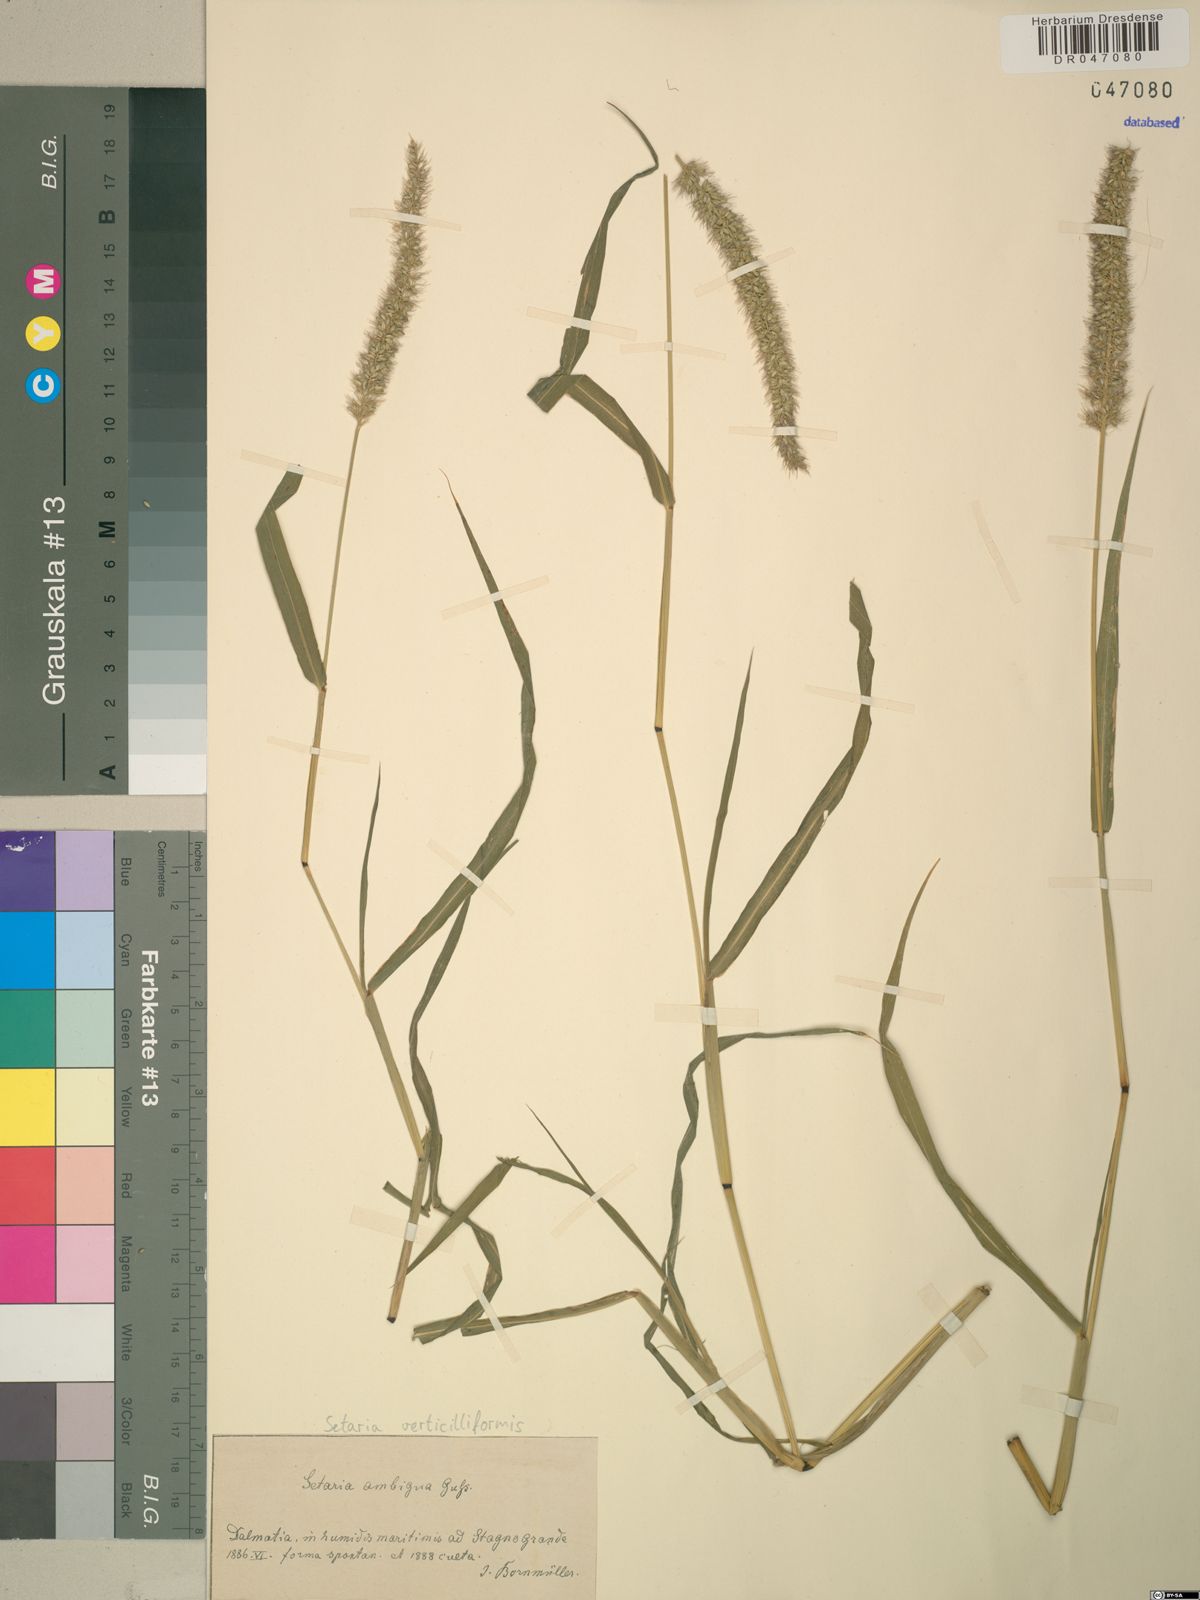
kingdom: Plantae
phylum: Tracheophyta
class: Liliopsida
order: Poales
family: Poaceae
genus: Setaria
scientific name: Setaria verticillata
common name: Hooked bristlegrass
